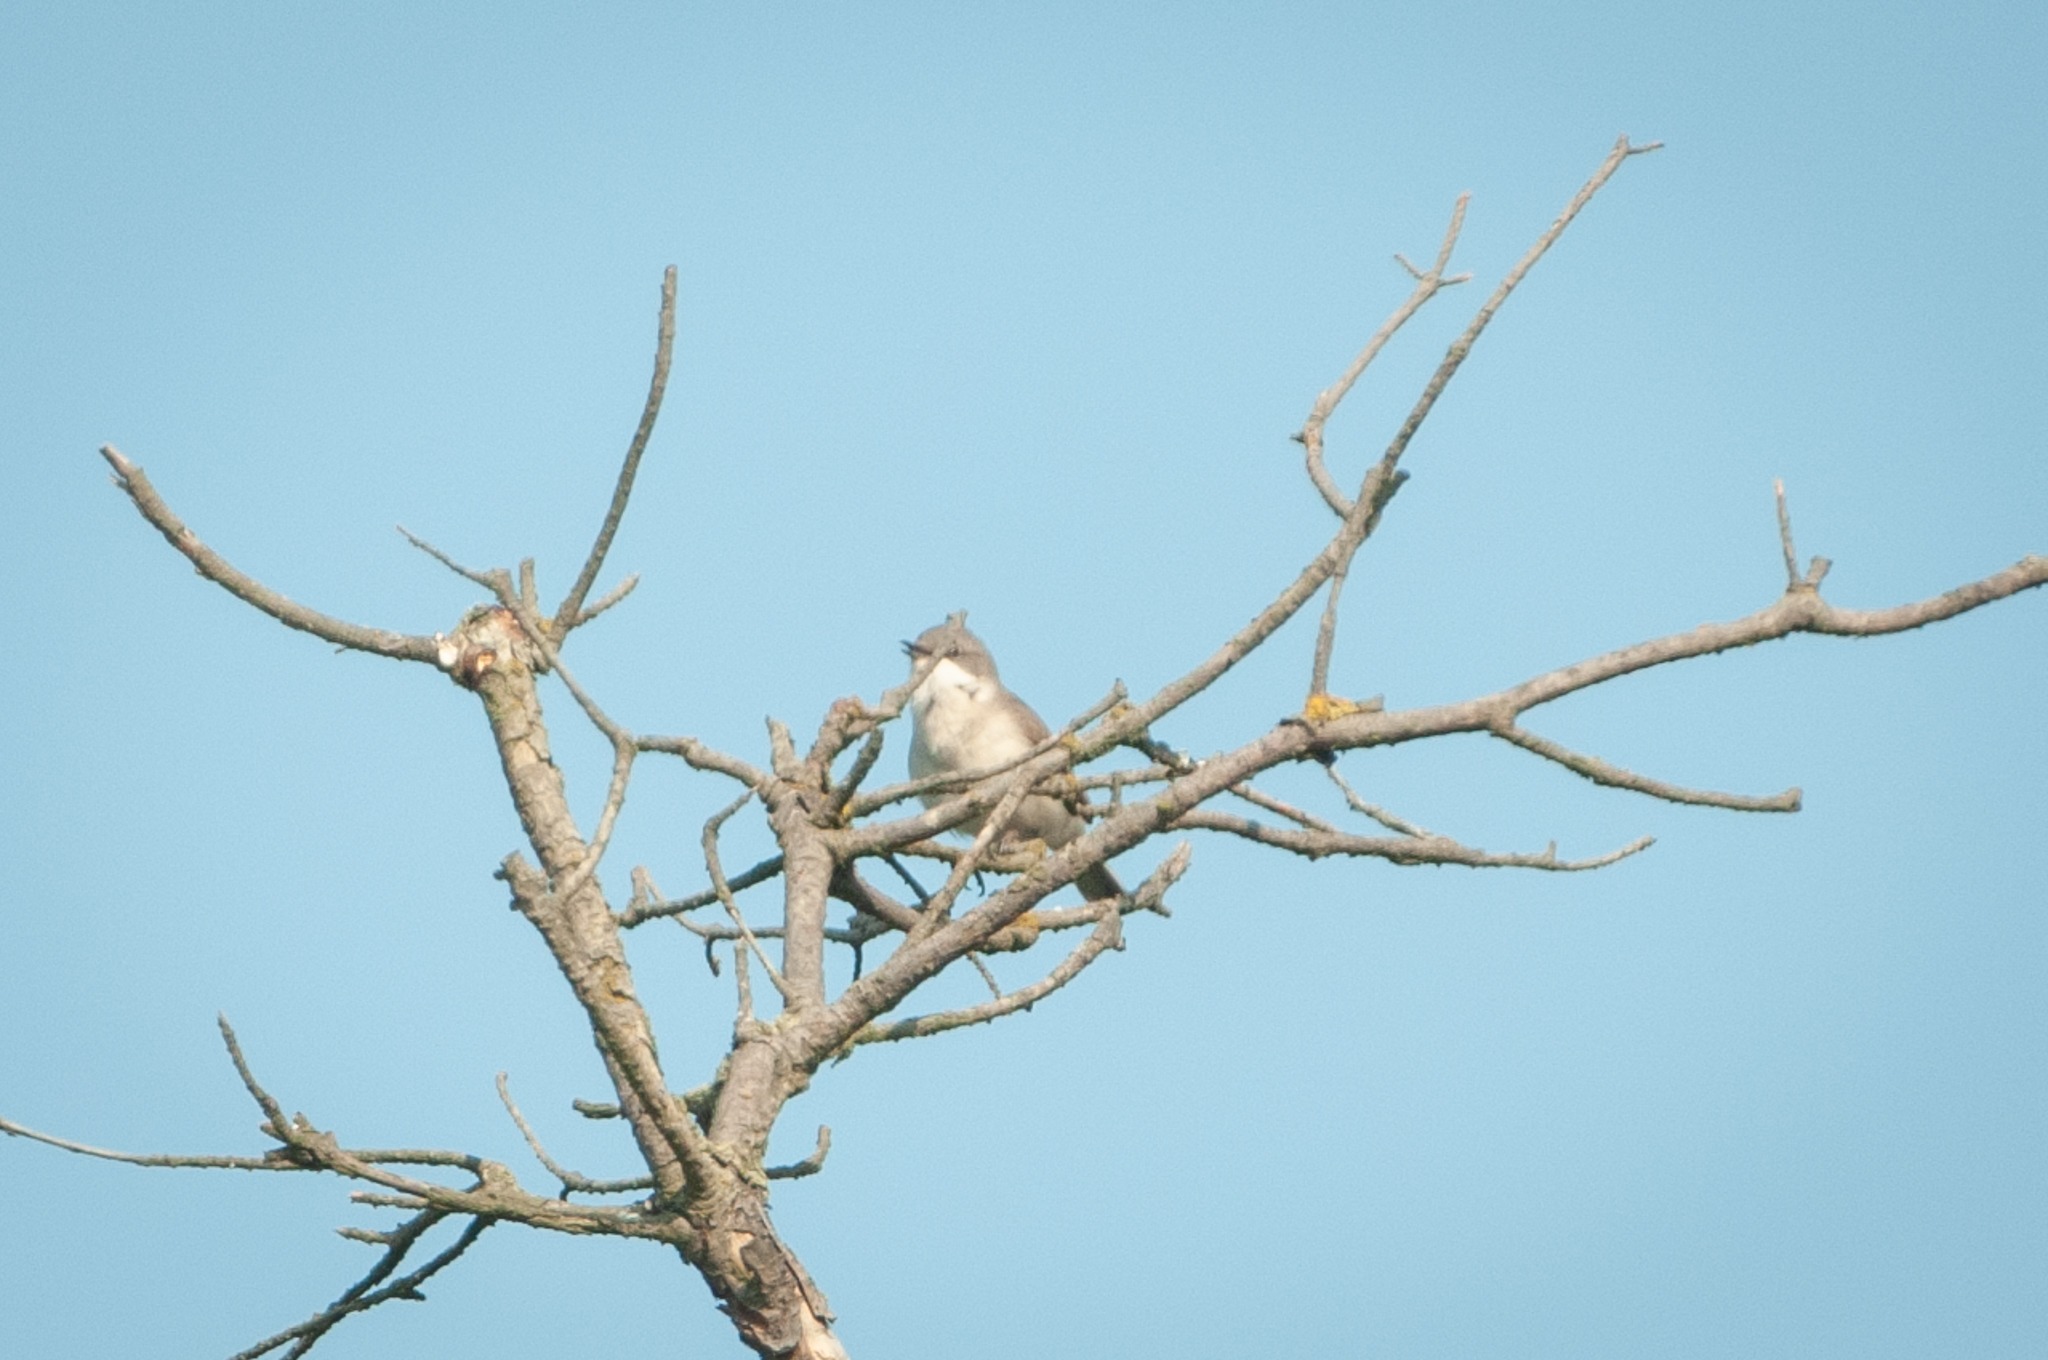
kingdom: Animalia
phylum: Chordata
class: Aves
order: Passeriformes
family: Sylviidae
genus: Sylvia
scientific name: Sylvia curruca
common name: Gærdesanger
